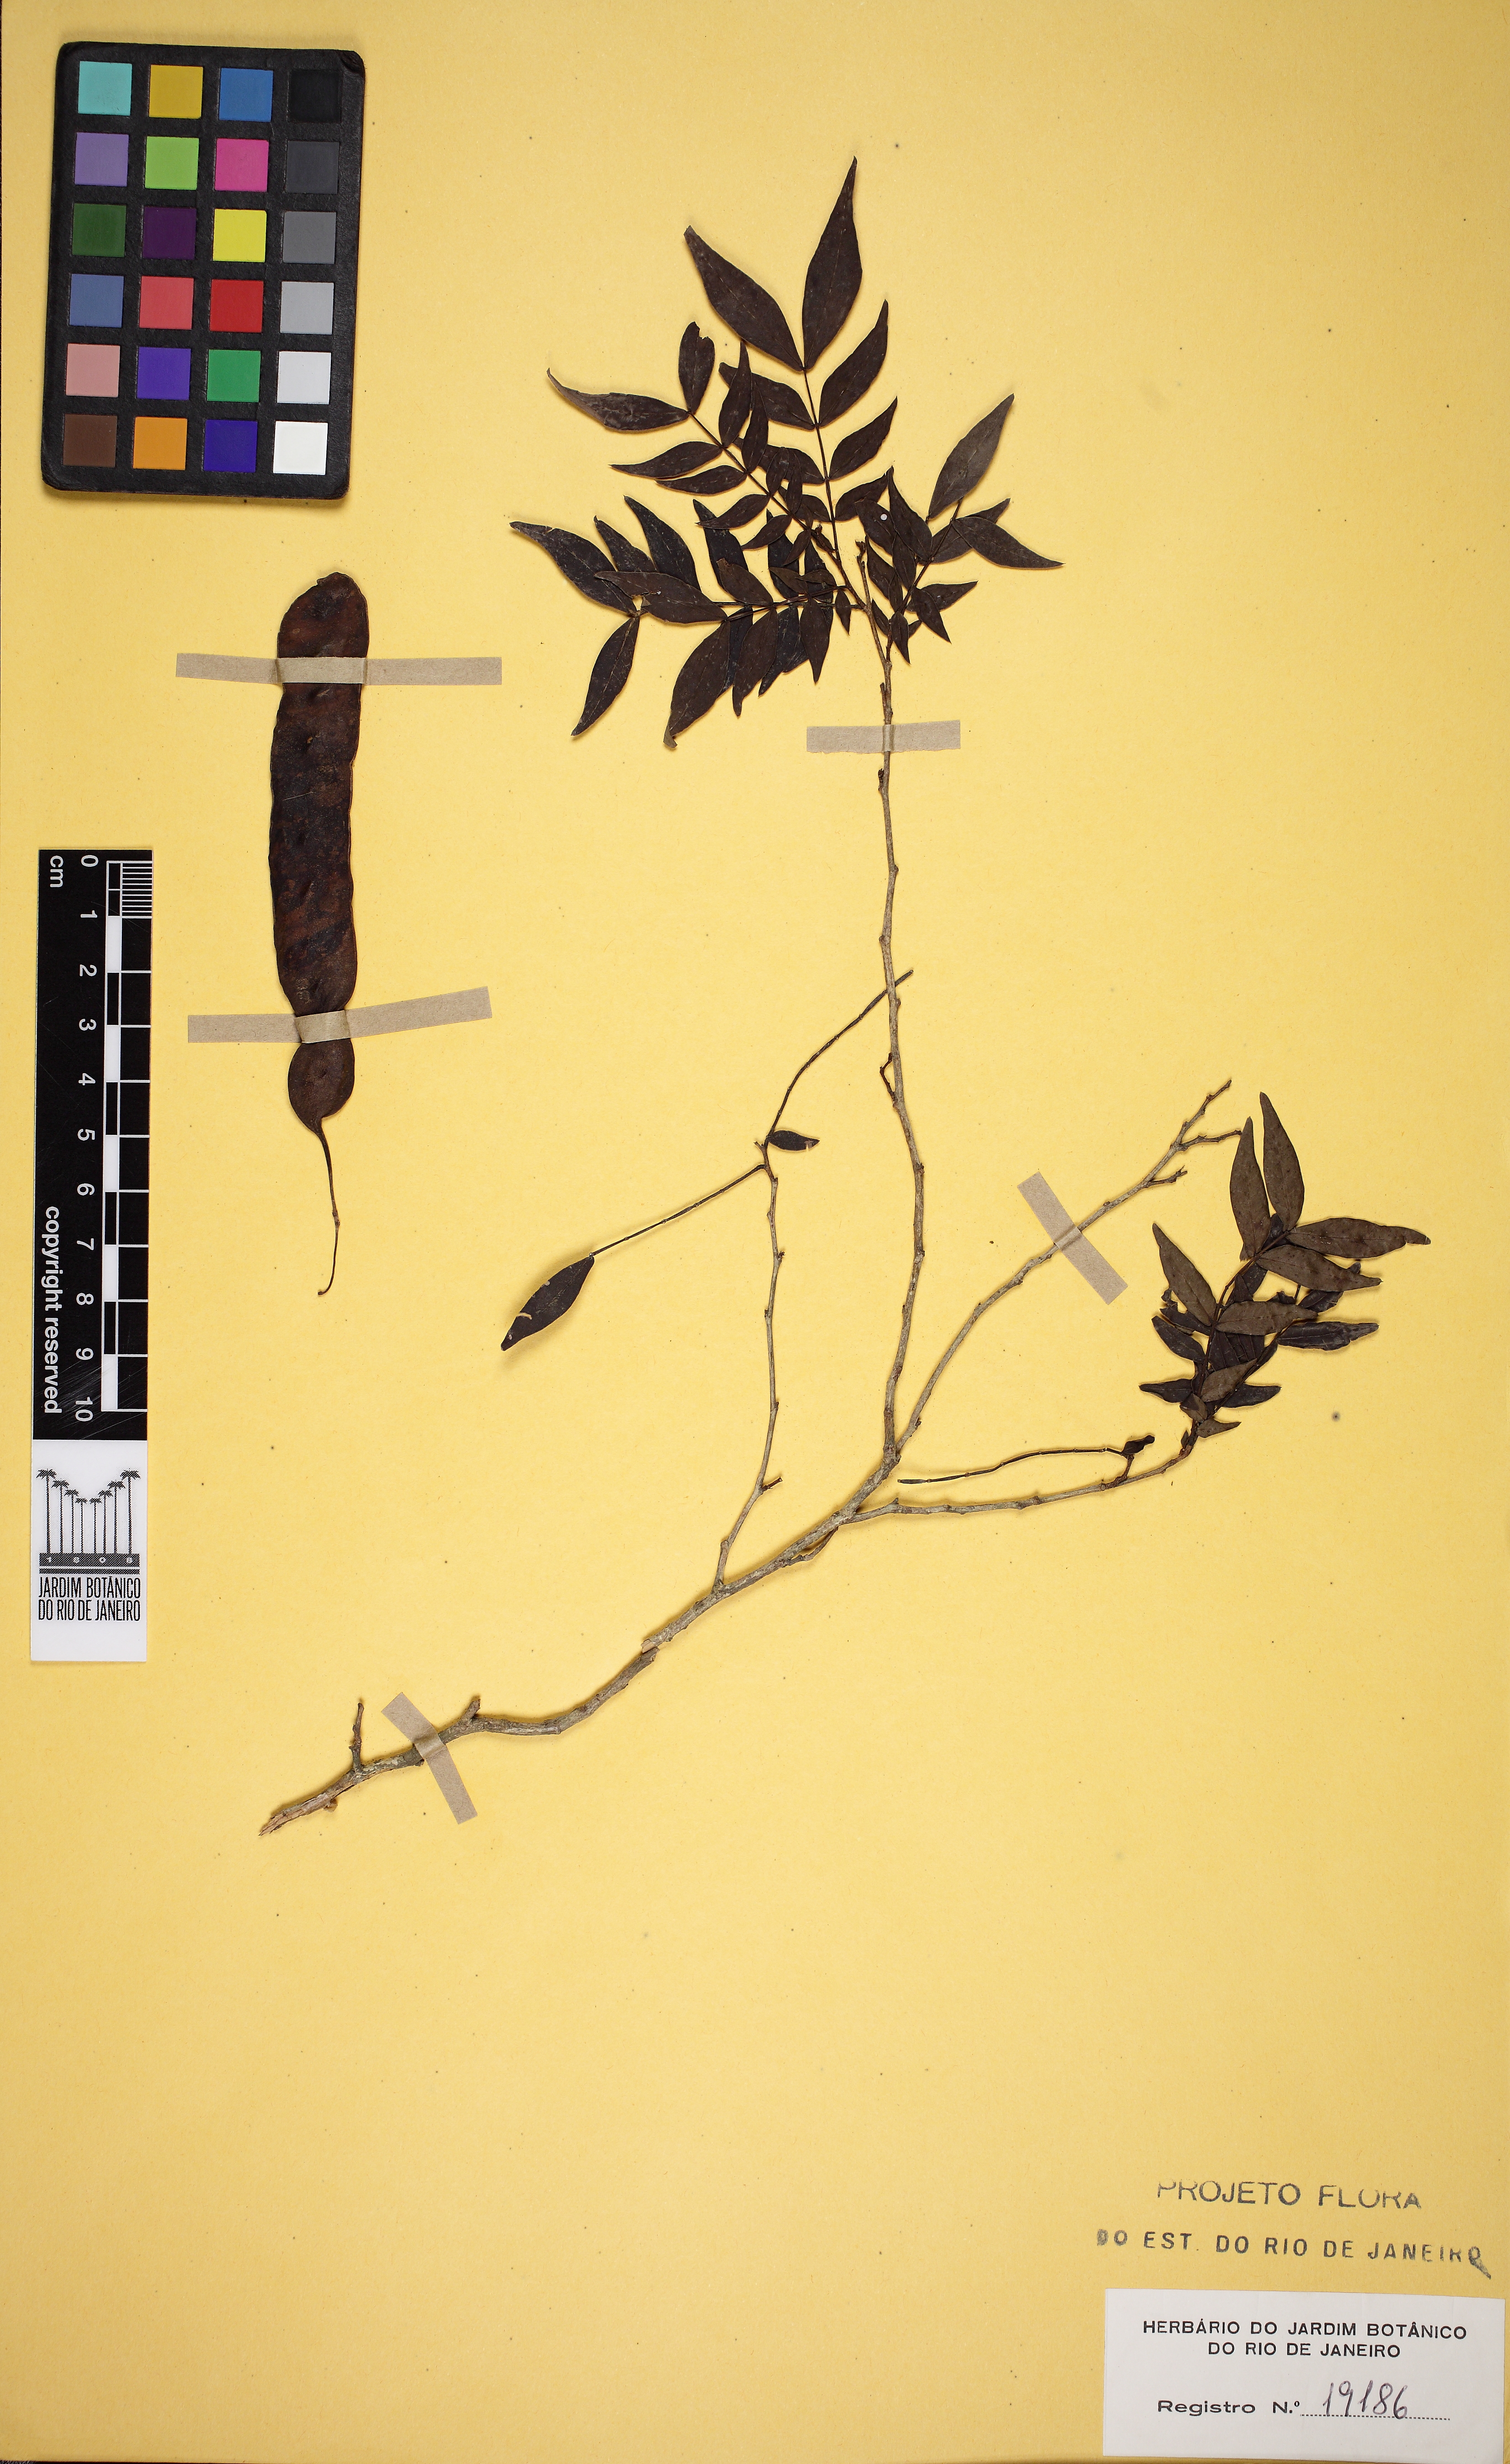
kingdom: Plantae
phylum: Tracheophyta
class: Magnoliopsida
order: Fabales
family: Fabaceae
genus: Inga
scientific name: Inga tenuis
